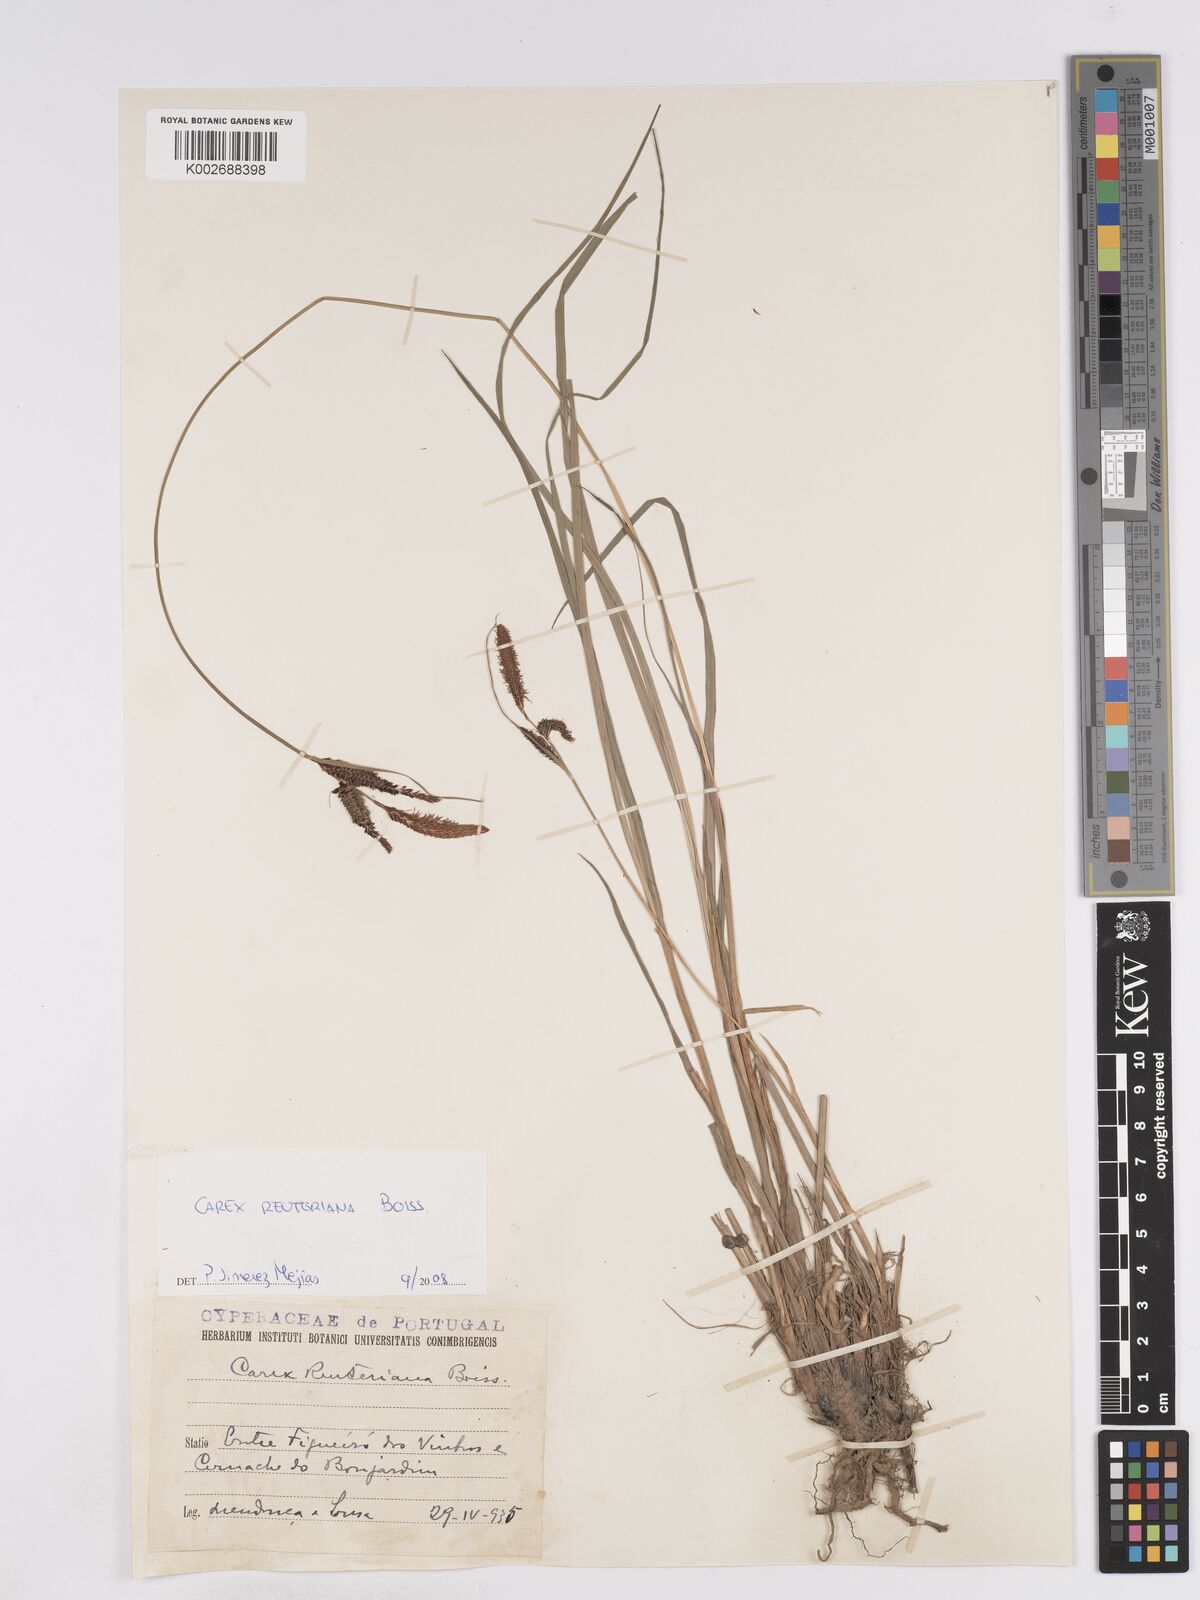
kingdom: Plantae
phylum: Tracheophyta
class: Liliopsida
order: Poales
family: Cyperaceae
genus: Carex
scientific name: Carex reuteriana
